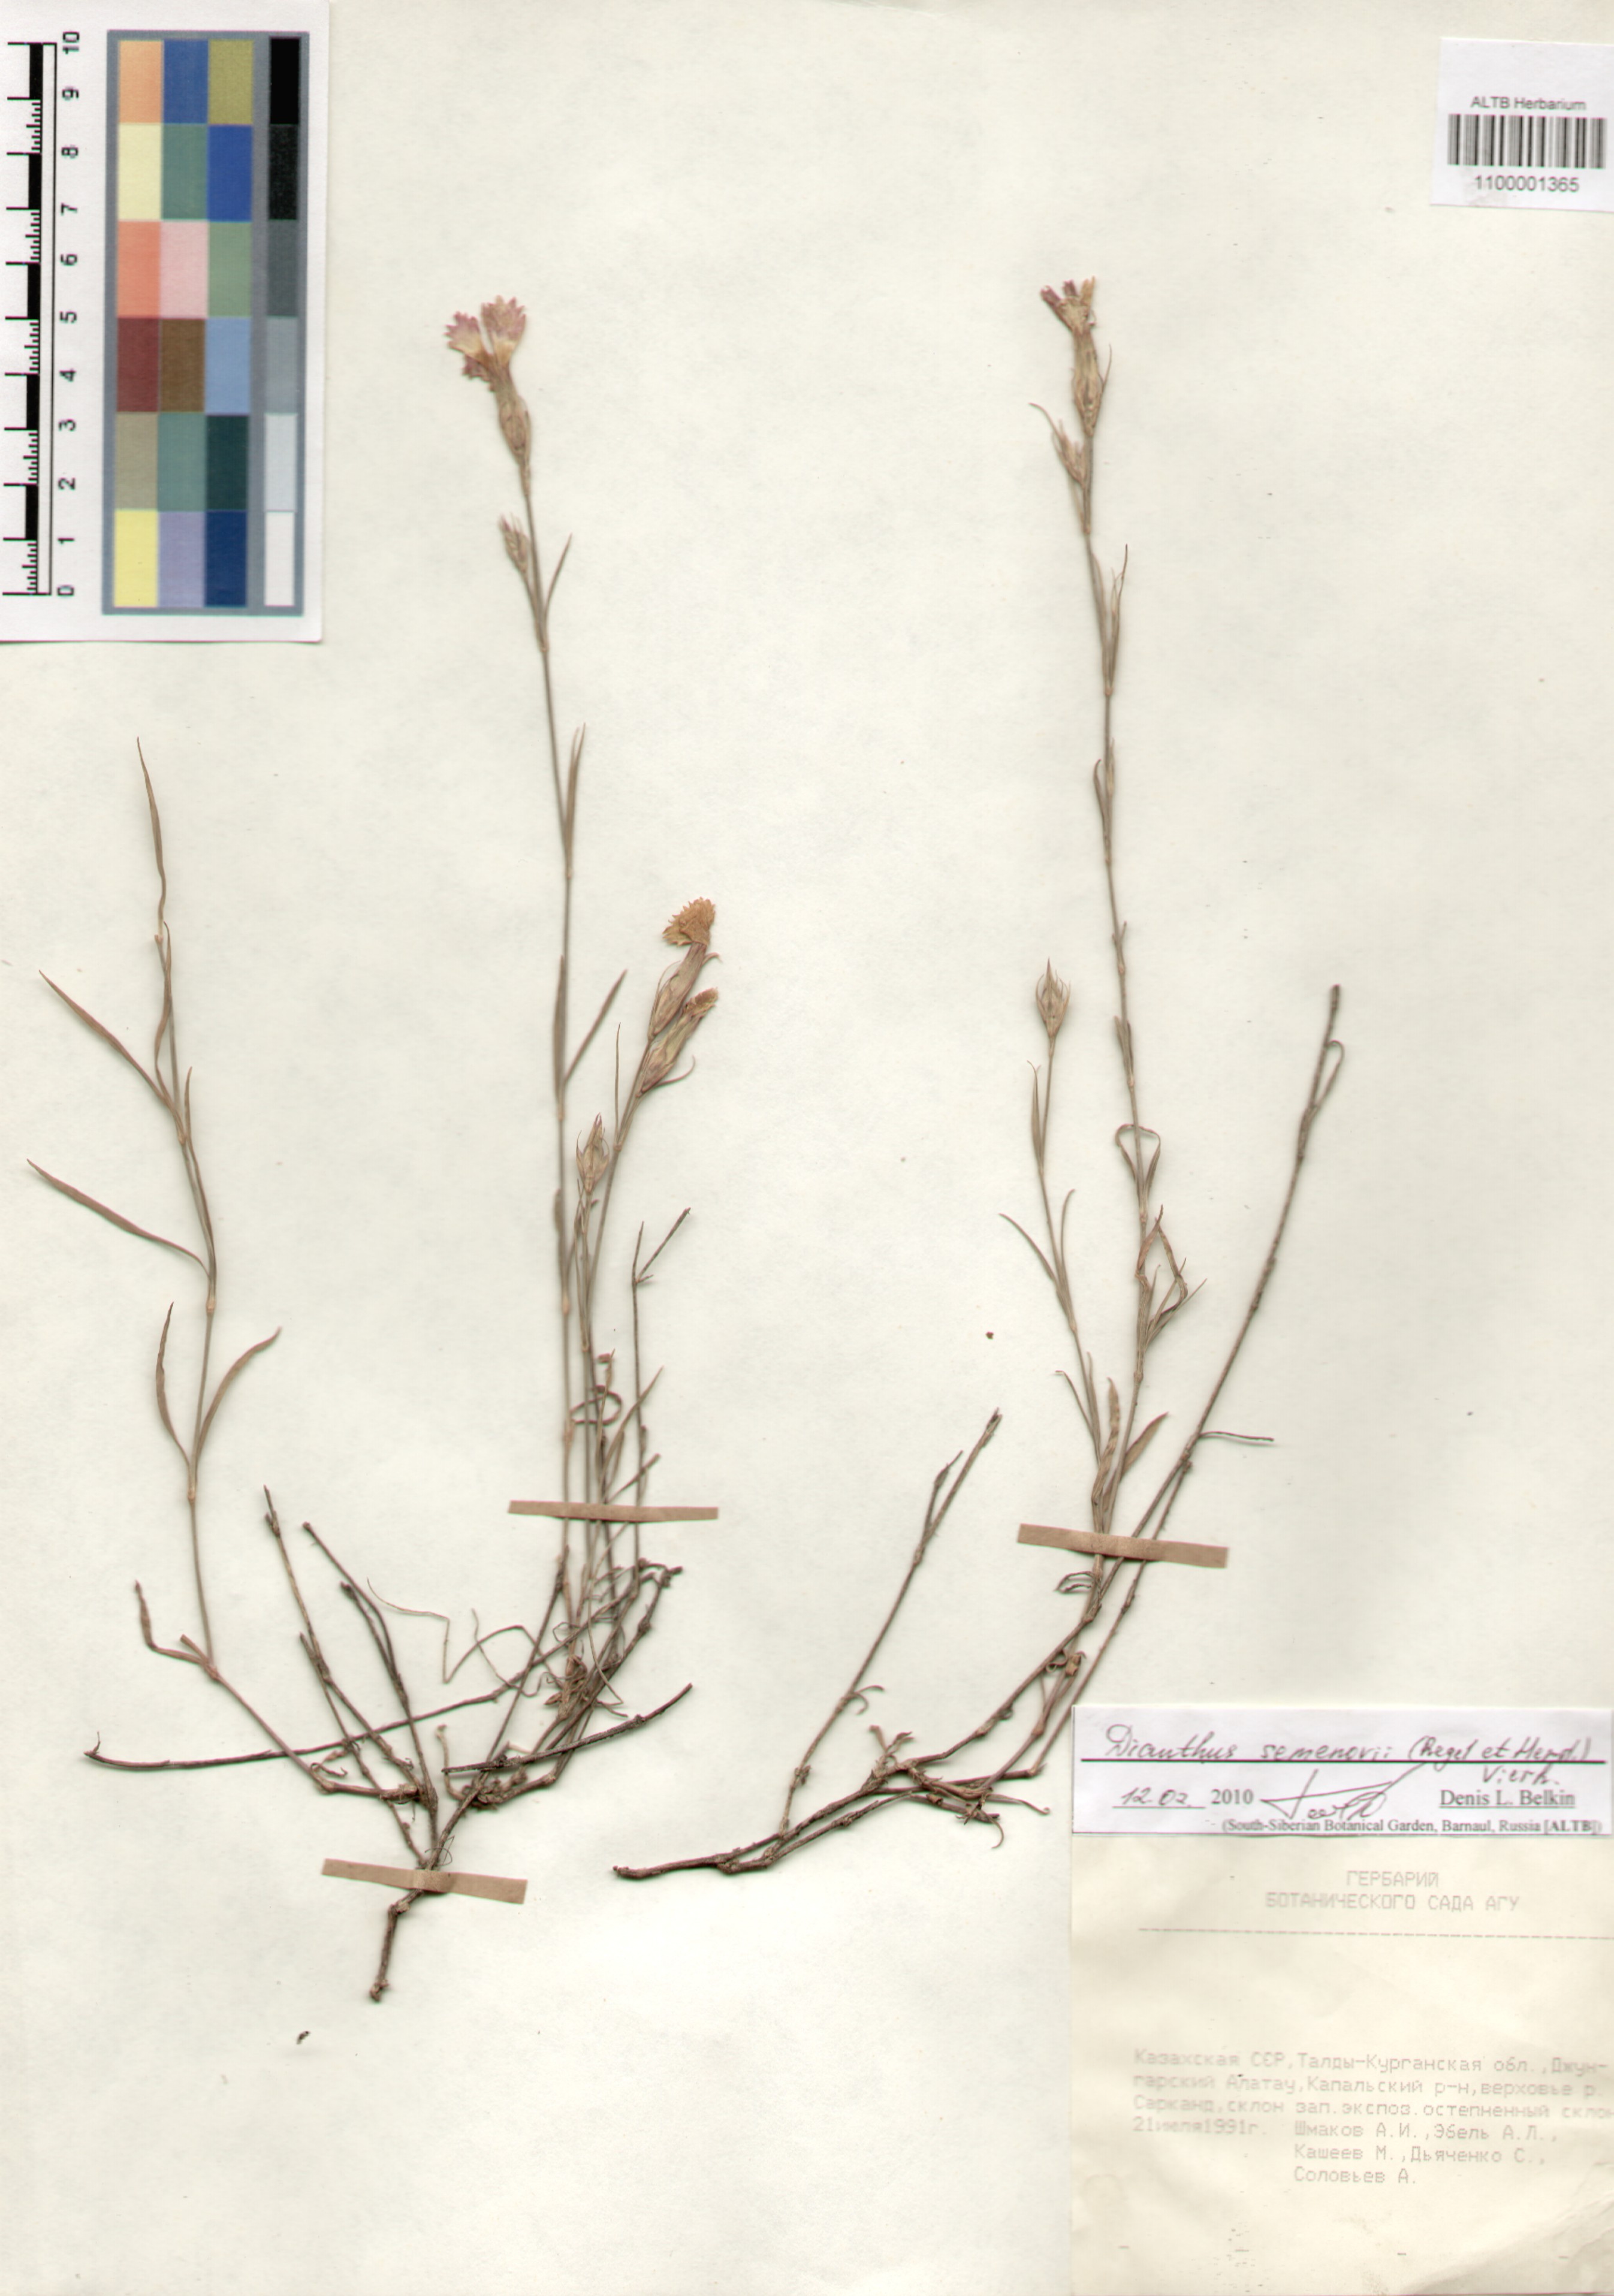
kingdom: Plantae
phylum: Tracheophyta
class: Magnoliopsida
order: Caryophyllales
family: Caryophyllaceae
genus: Dianthus
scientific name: Dianthus semenovii
